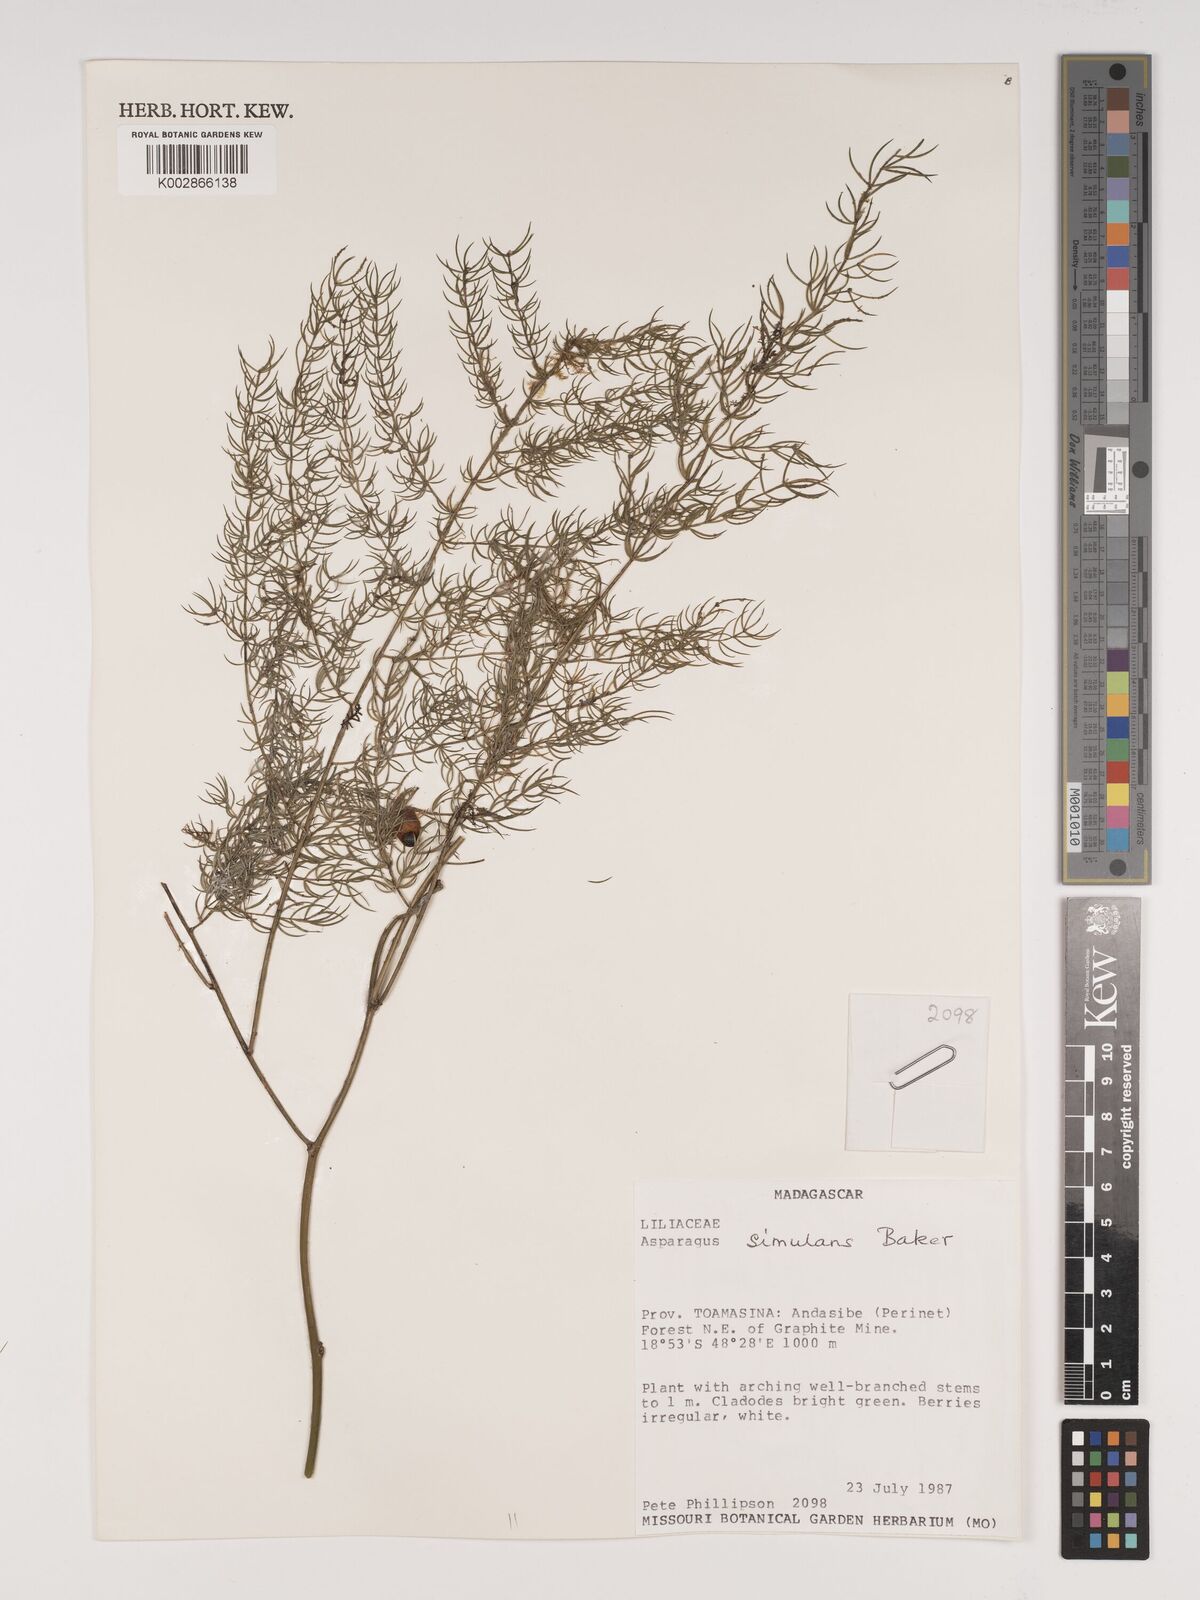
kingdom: Plantae
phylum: Tracheophyta
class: Liliopsida
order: Asparagales
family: Asparagaceae
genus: Asparagus
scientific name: Asparagus simulans
